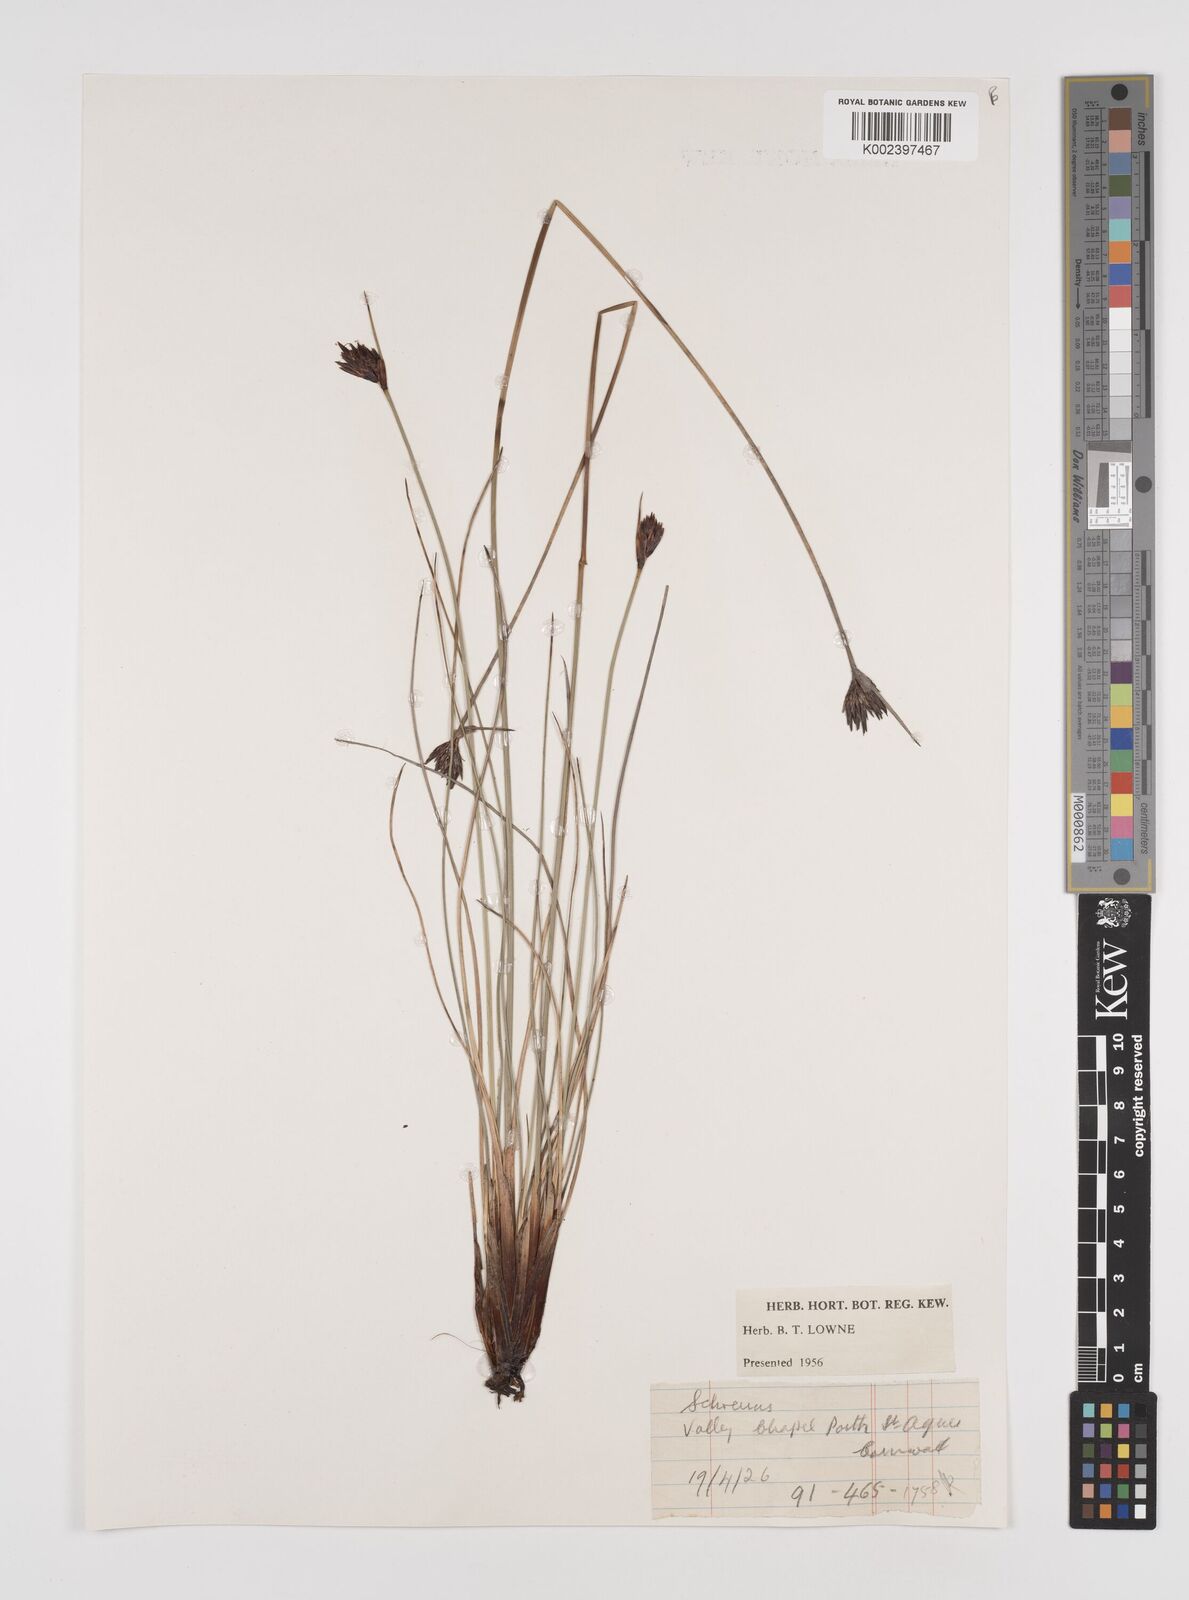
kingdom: Plantae
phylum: Tracheophyta
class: Liliopsida
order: Poales
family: Cyperaceae
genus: Schoenus
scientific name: Schoenus nigricans
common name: Black bog-rush
